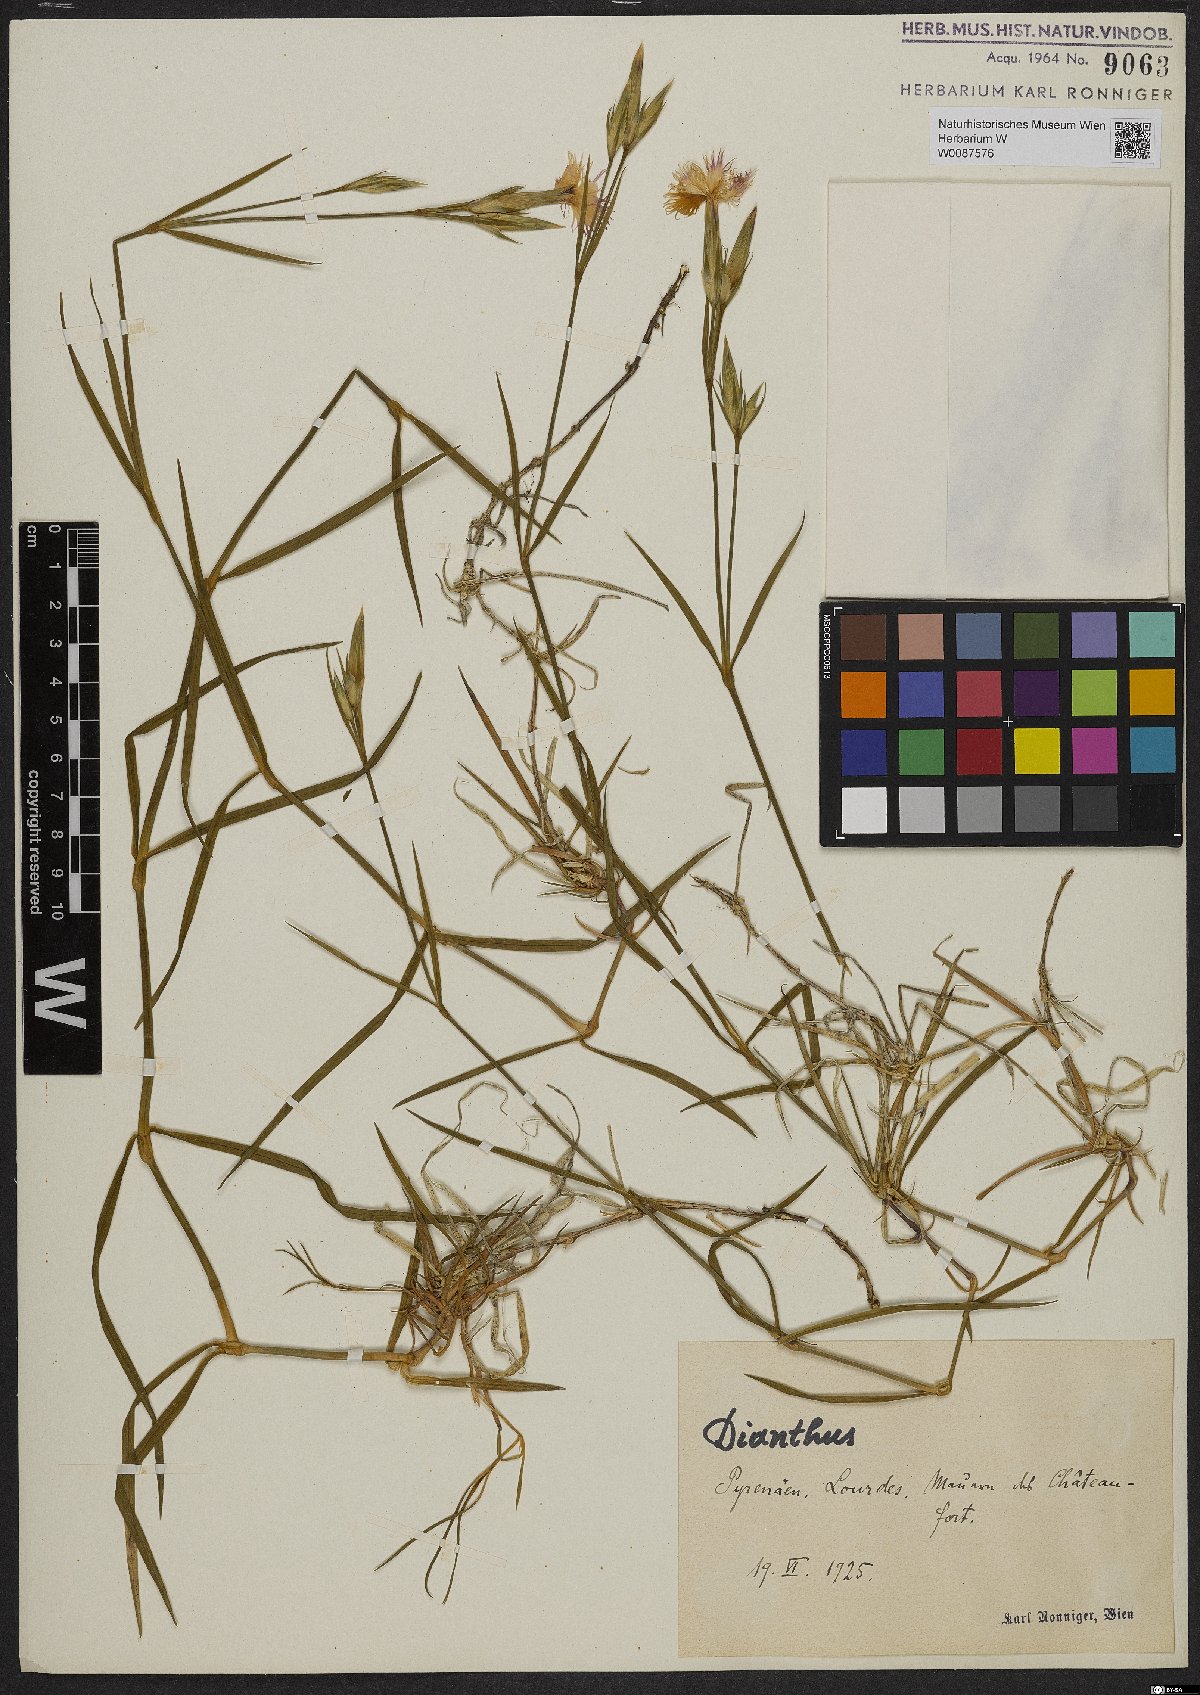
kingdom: Plantae
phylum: Tracheophyta
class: Magnoliopsida
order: Caryophyllales
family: Caryophyllaceae
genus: Dianthus
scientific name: Dianthus
